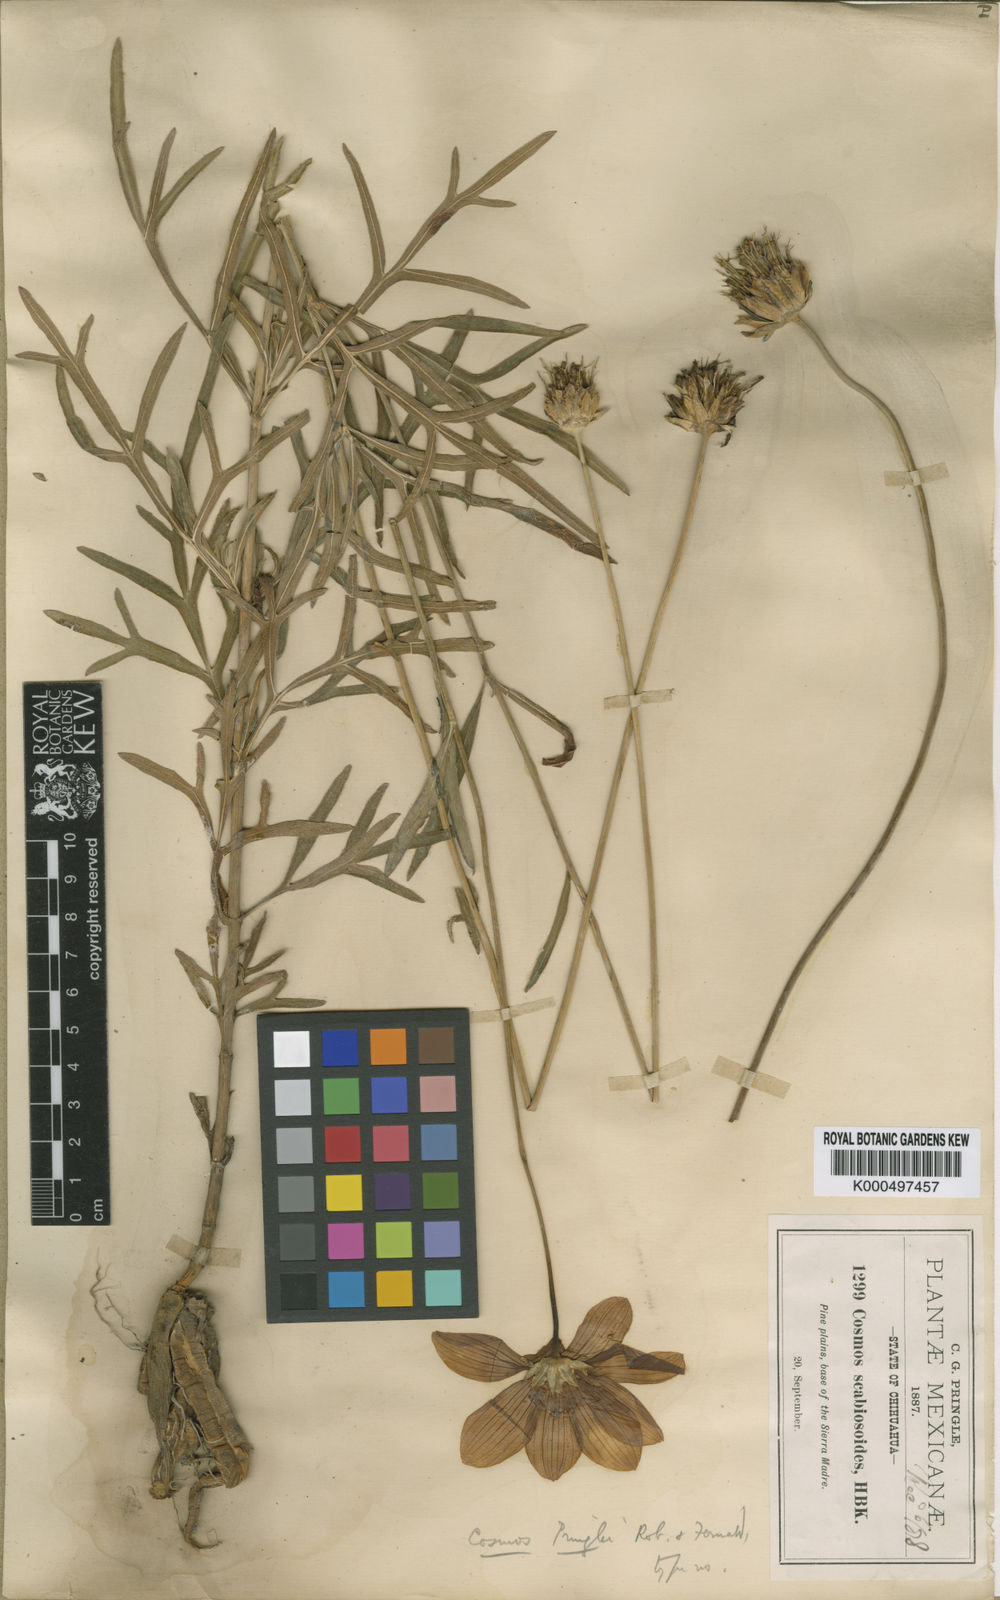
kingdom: Plantae
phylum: Tracheophyta
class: Magnoliopsida
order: Asterales
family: Asteraceae
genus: Cosmos
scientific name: Cosmos pringlei
